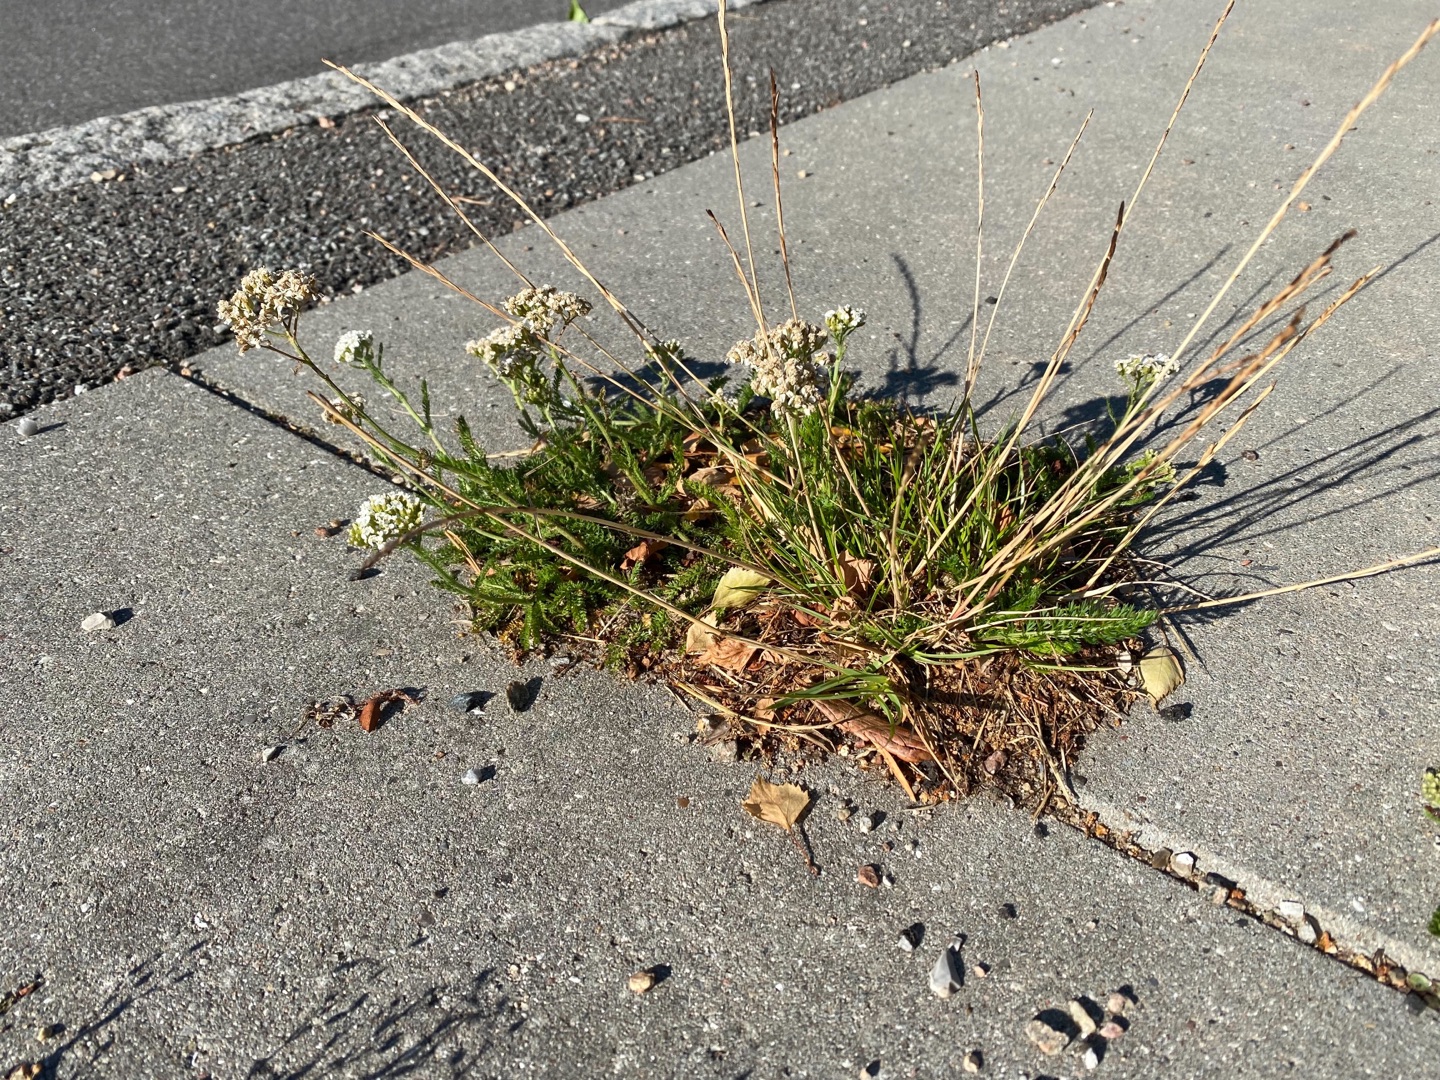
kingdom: Plantae
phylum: Tracheophyta
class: Magnoliopsida
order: Asterales
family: Asteraceae
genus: Achillea
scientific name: Achillea millefolium
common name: Almindelig røllike
